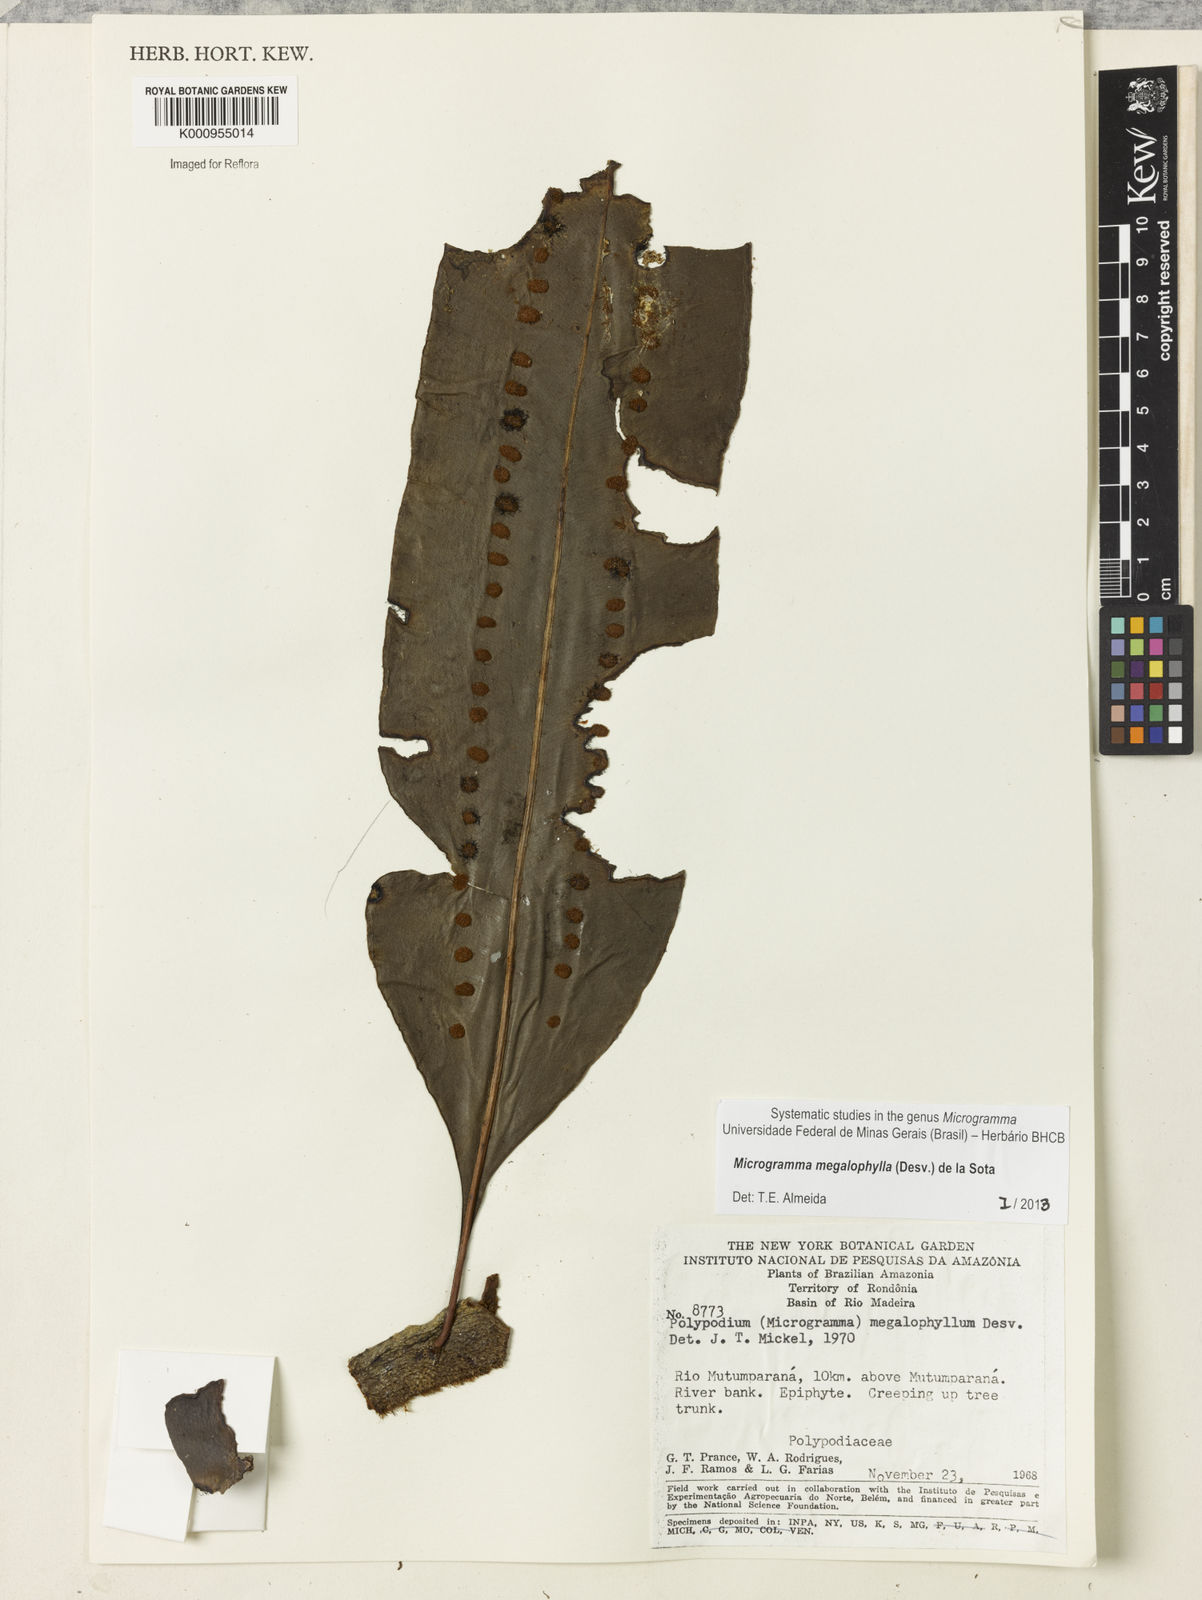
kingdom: Plantae
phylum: Tracheophyta
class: Polypodiopsida
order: Polypodiales
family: Polypodiaceae
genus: Microgramma
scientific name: Microgramma megalophylla
